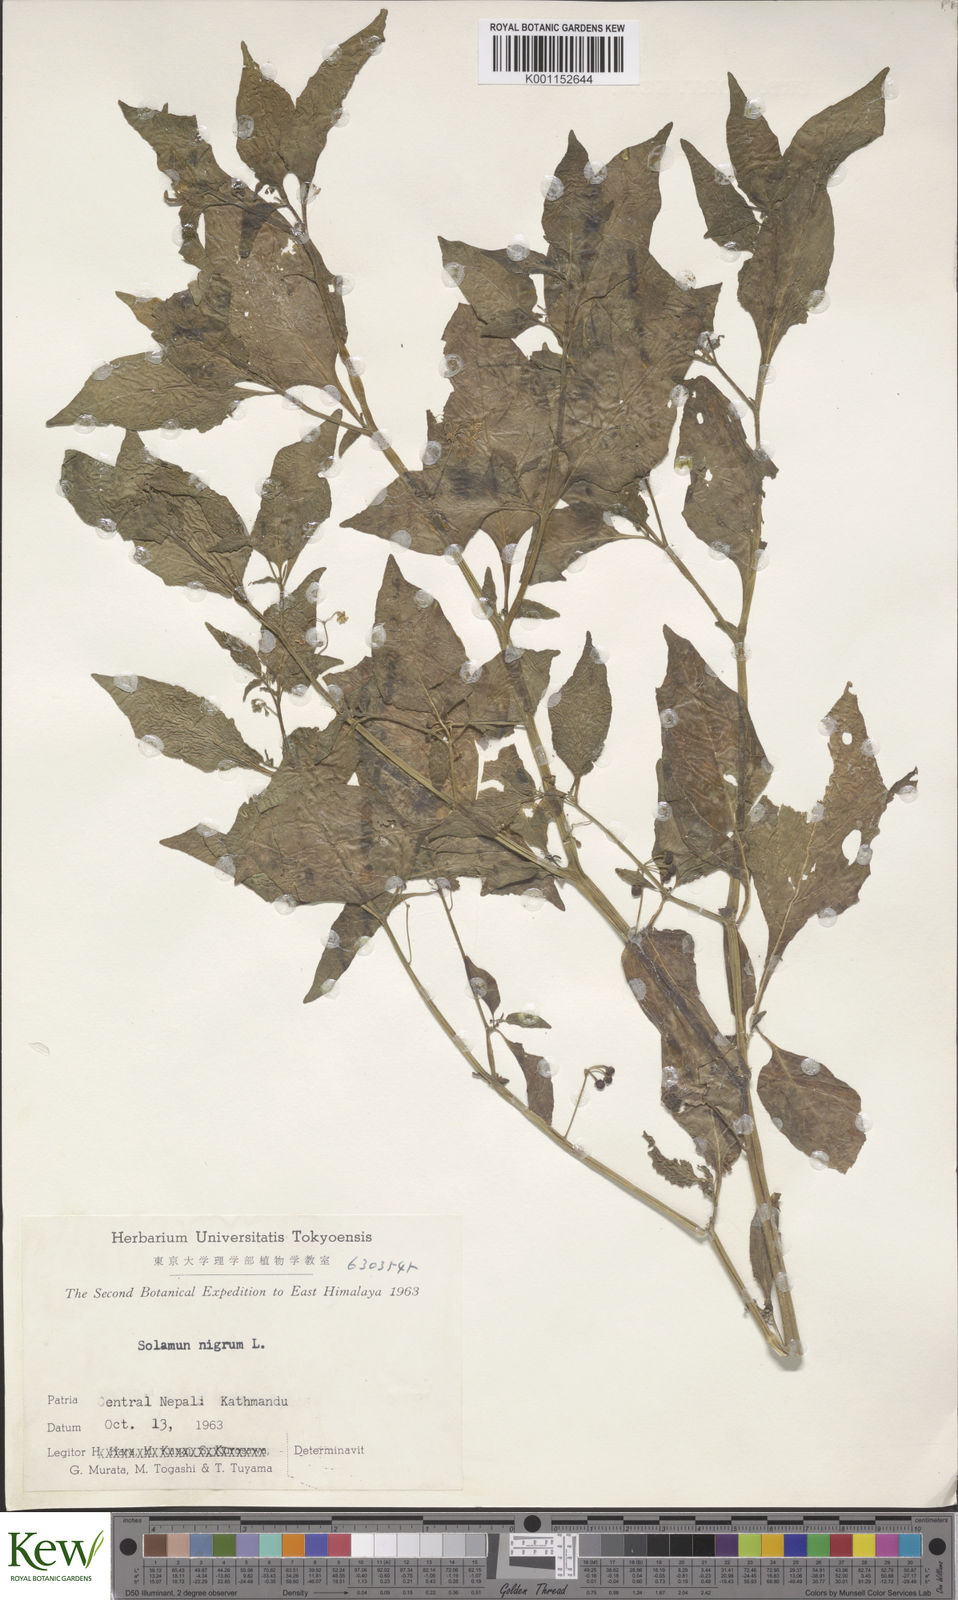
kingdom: Plantae
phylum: Tracheophyta
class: Magnoliopsida
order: Solanales
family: Solanaceae
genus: Solanum
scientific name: Solanum nigrum
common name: Black nightshade
